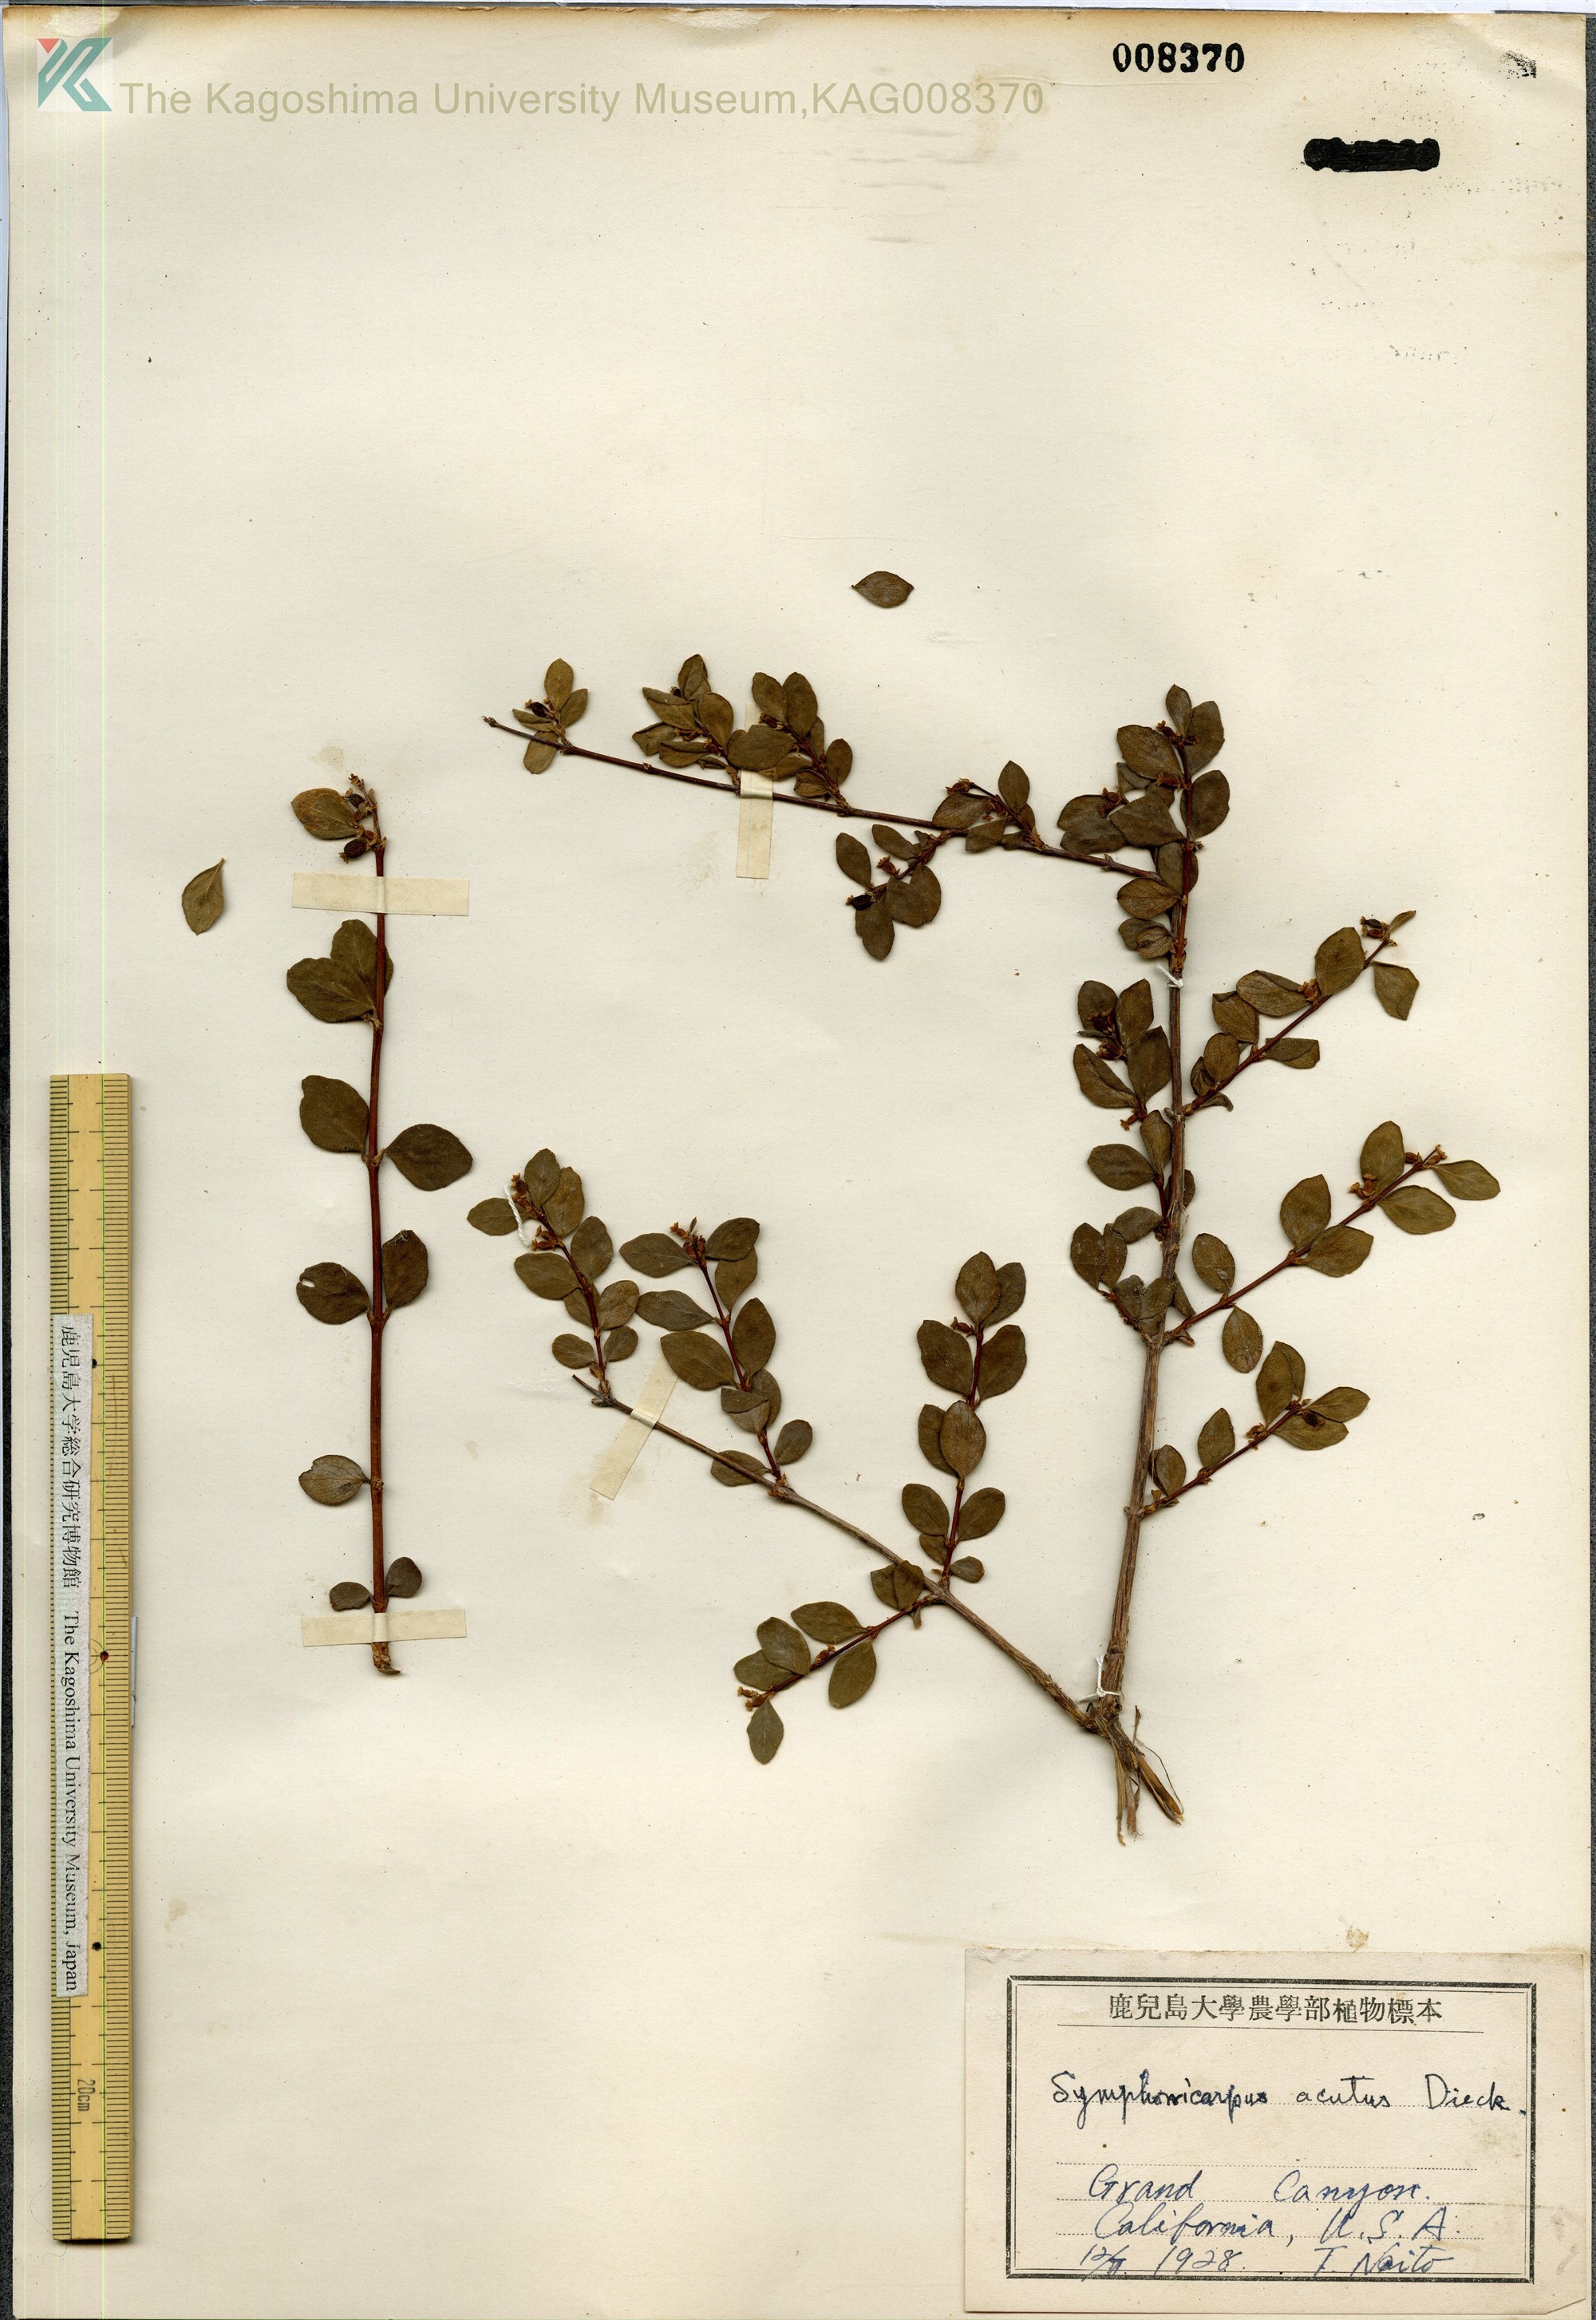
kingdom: Plantae
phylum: Tracheophyta
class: Magnoliopsida
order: Dipsacales
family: Caprifoliaceae
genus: Symphoricarpos
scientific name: Symphoricarpos acutus
